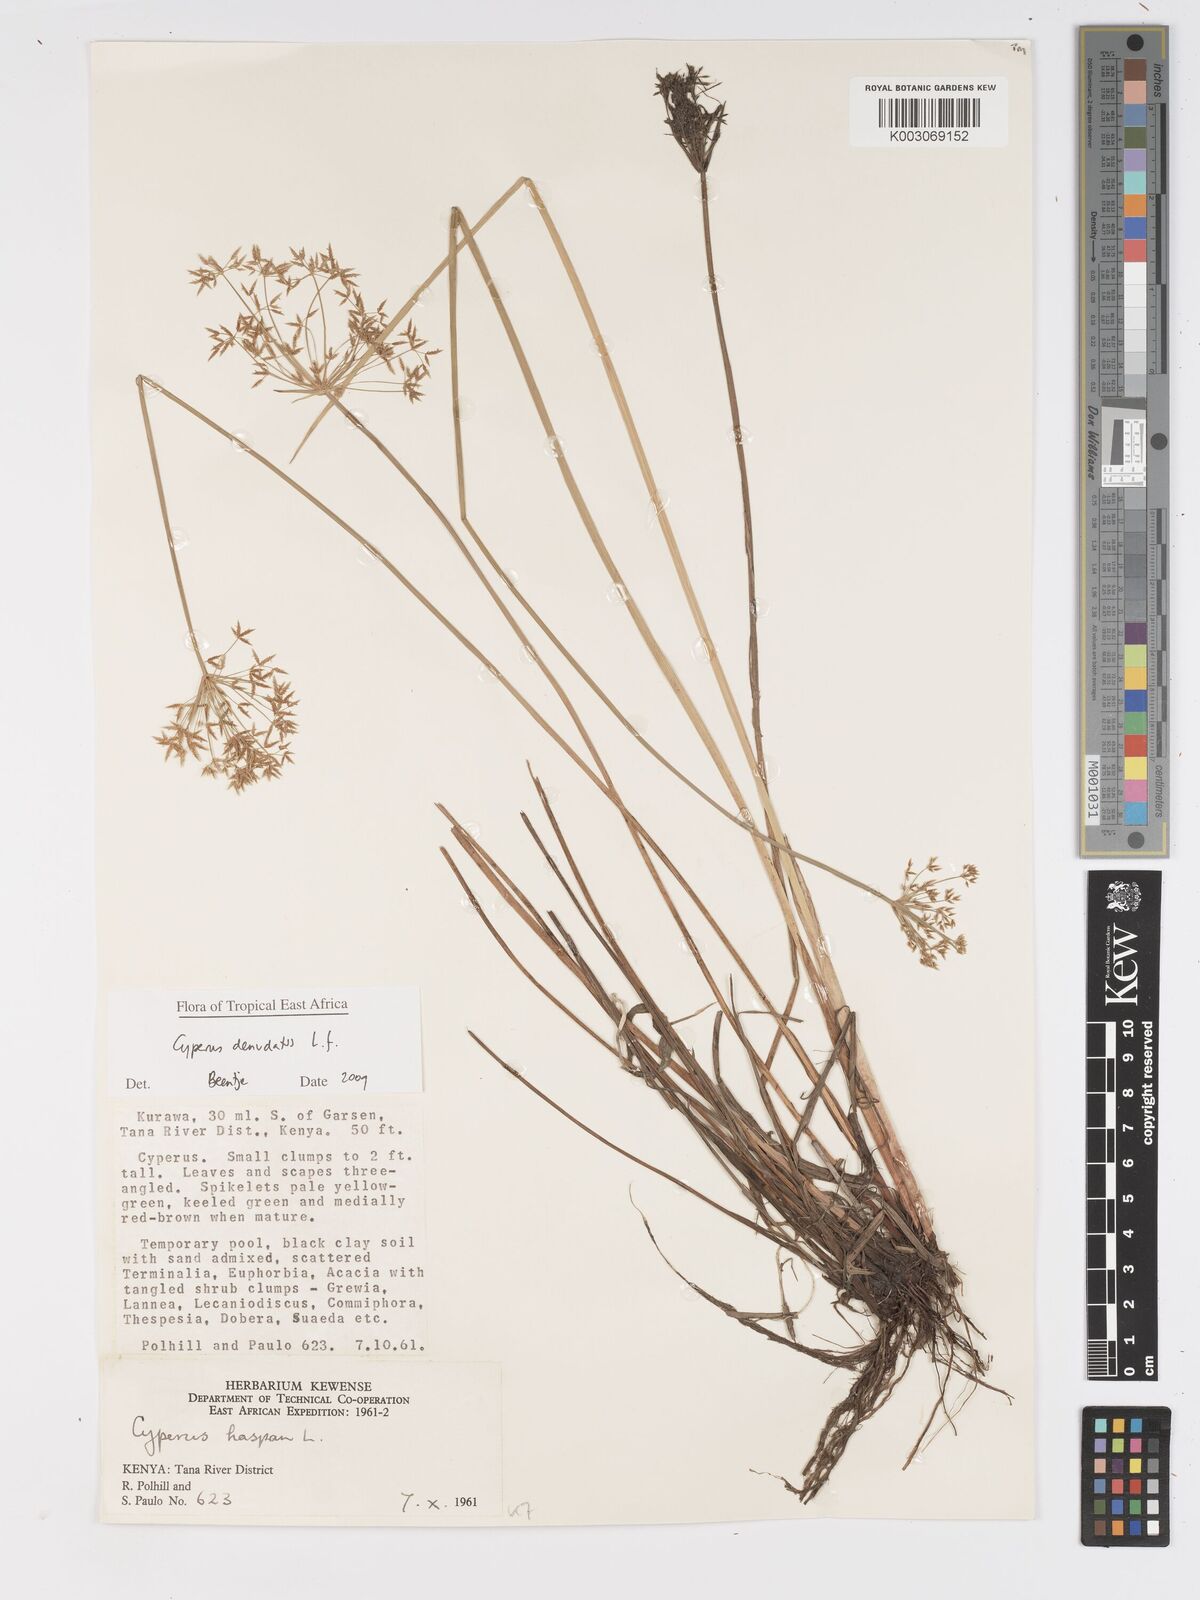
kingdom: Plantae
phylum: Tracheophyta
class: Liliopsida
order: Poales
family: Cyperaceae
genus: Cyperus
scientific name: Cyperus denudatus
